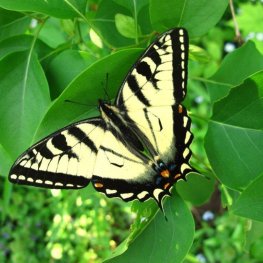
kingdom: Animalia
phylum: Arthropoda
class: Insecta
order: Lepidoptera
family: Papilionidae
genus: Pterourus
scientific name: Pterourus canadensis
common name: Canadian Tiger Swallowtail
